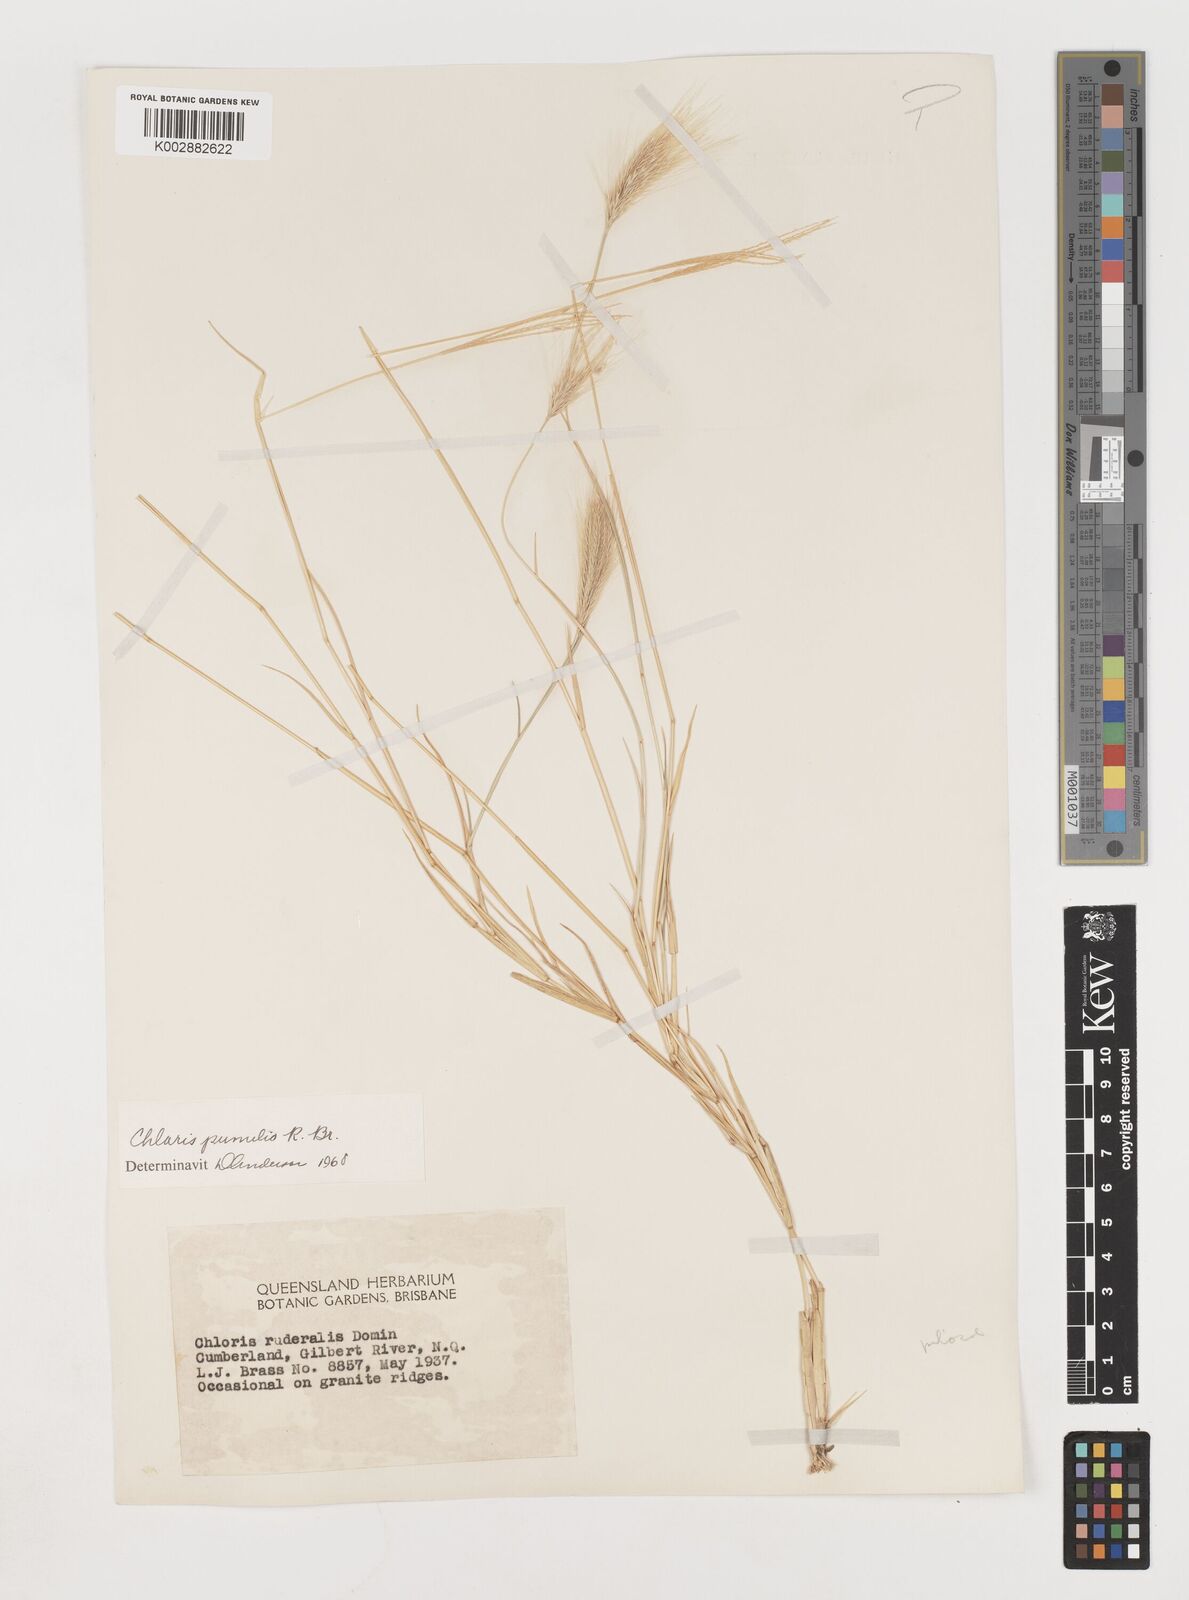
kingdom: Plantae
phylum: Tracheophyta
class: Liliopsida
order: Poales
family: Poaceae
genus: Chloris
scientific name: Chloris pumilio
